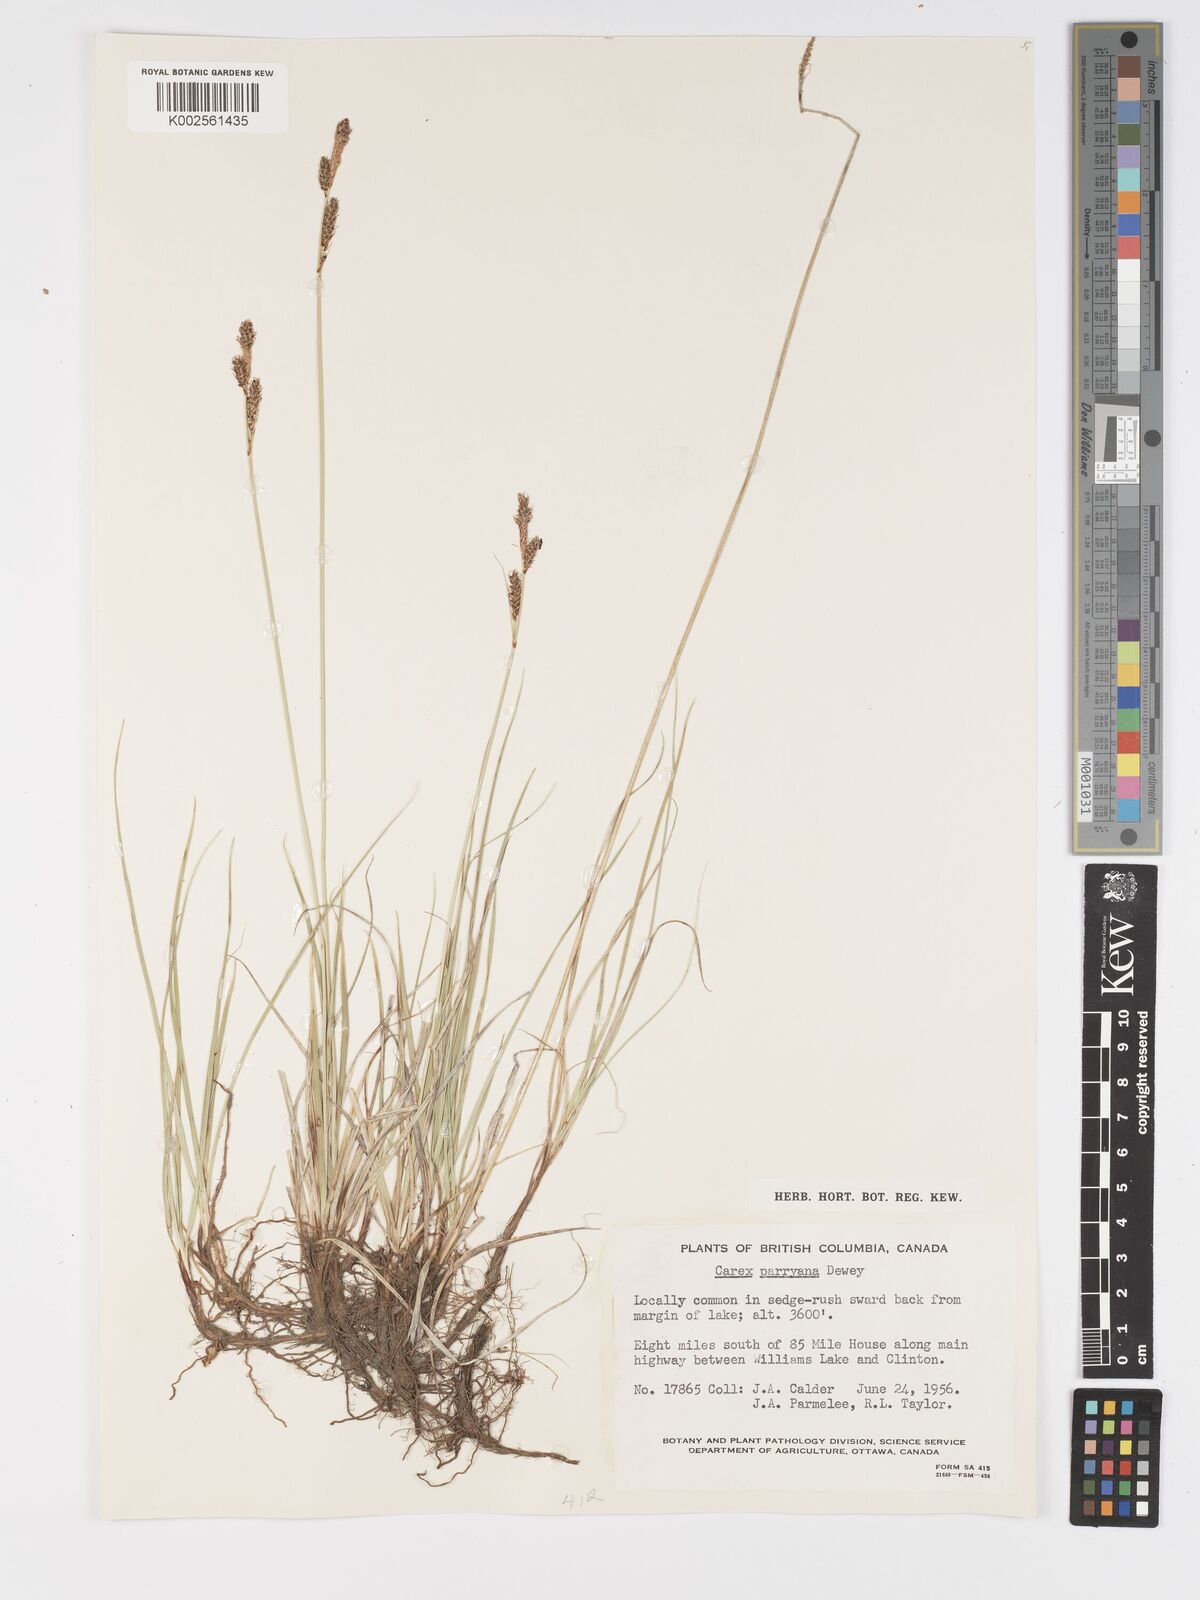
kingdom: Plantae
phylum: Tracheophyta
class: Liliopsida
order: Poales
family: Cyperaceae
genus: Carex
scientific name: Carex parryana
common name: Parry's sedge
